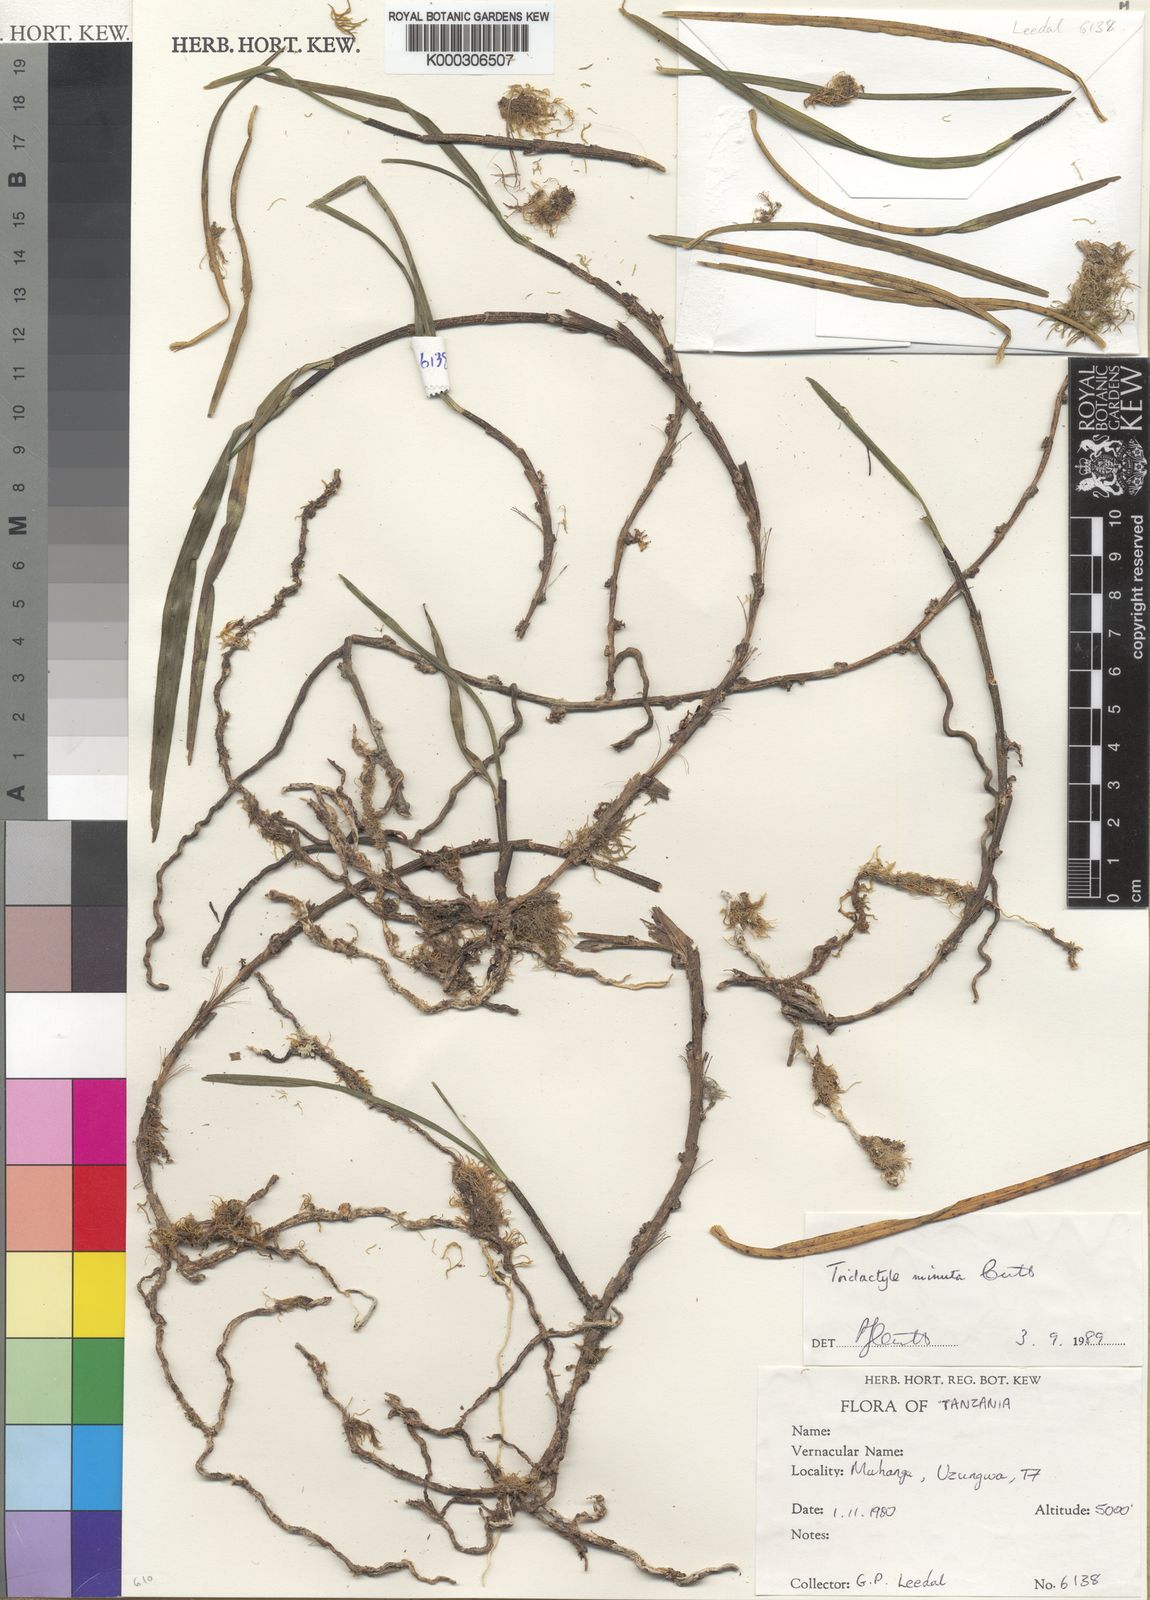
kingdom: Plantae
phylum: Tracheophyta
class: Liliopsida
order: Asparagales
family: Orchidaceae
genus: Tridactyle
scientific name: Tridactyle minuta
